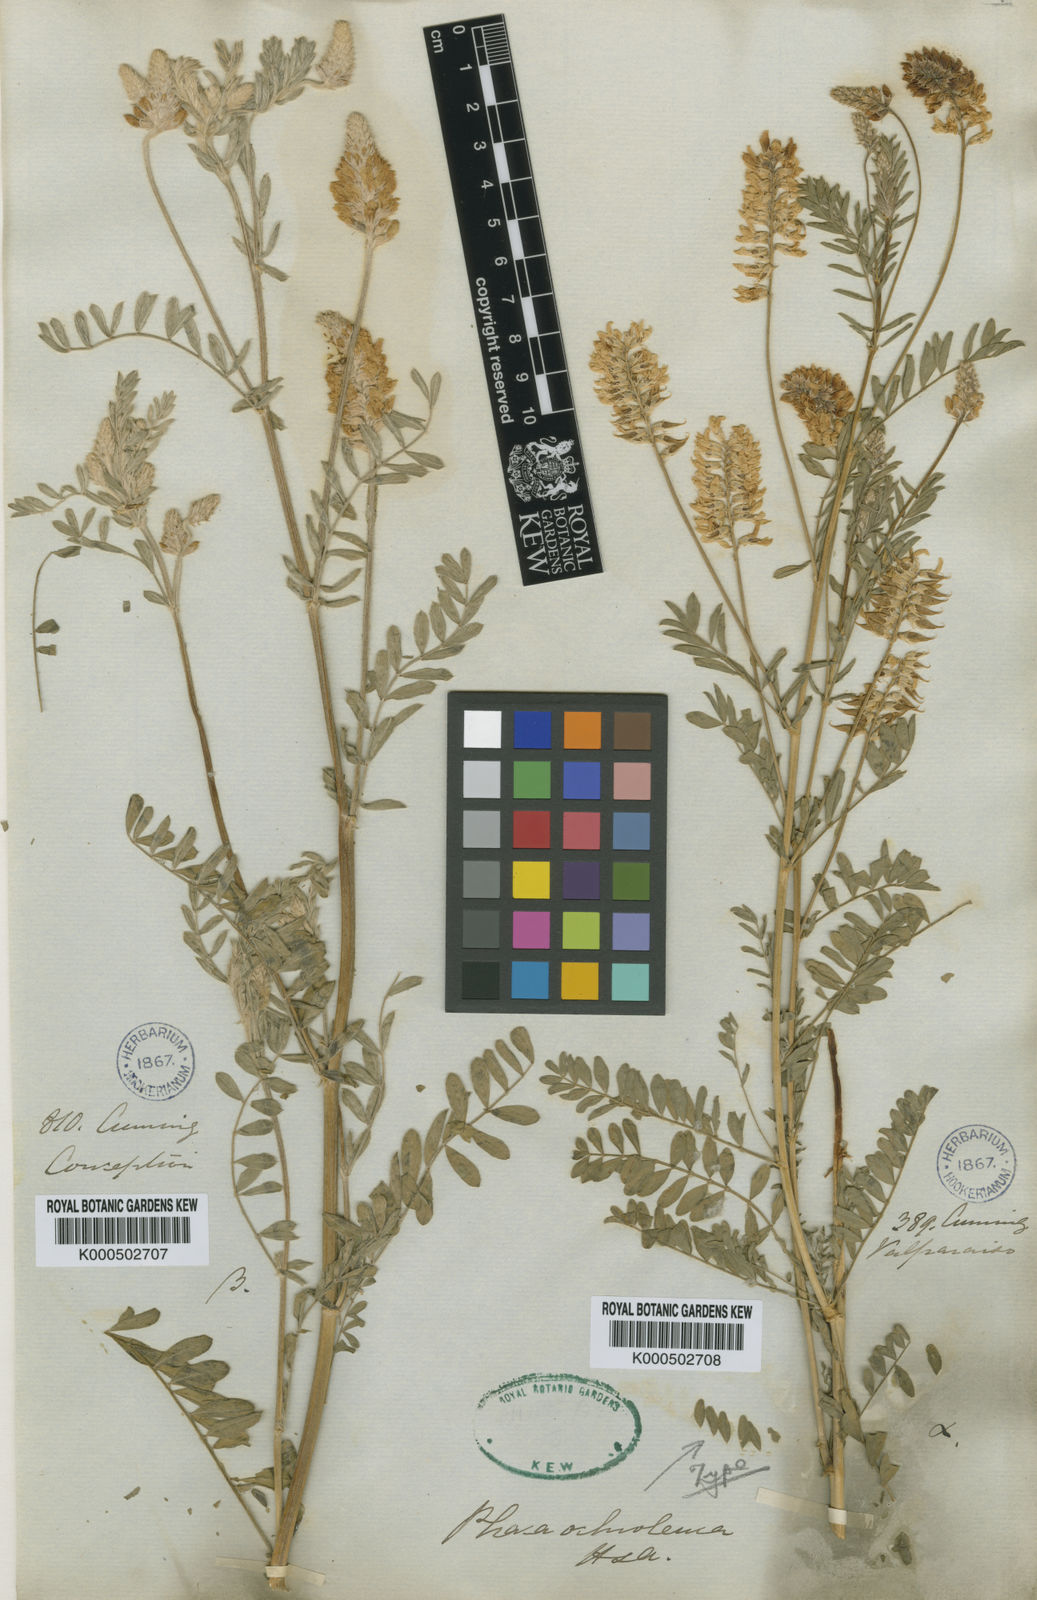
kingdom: Plantae
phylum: Tracheophyta
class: Magnoliopsida
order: Fabales
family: Fabaceae
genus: Astragalus
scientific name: Astragalus chamissonis
